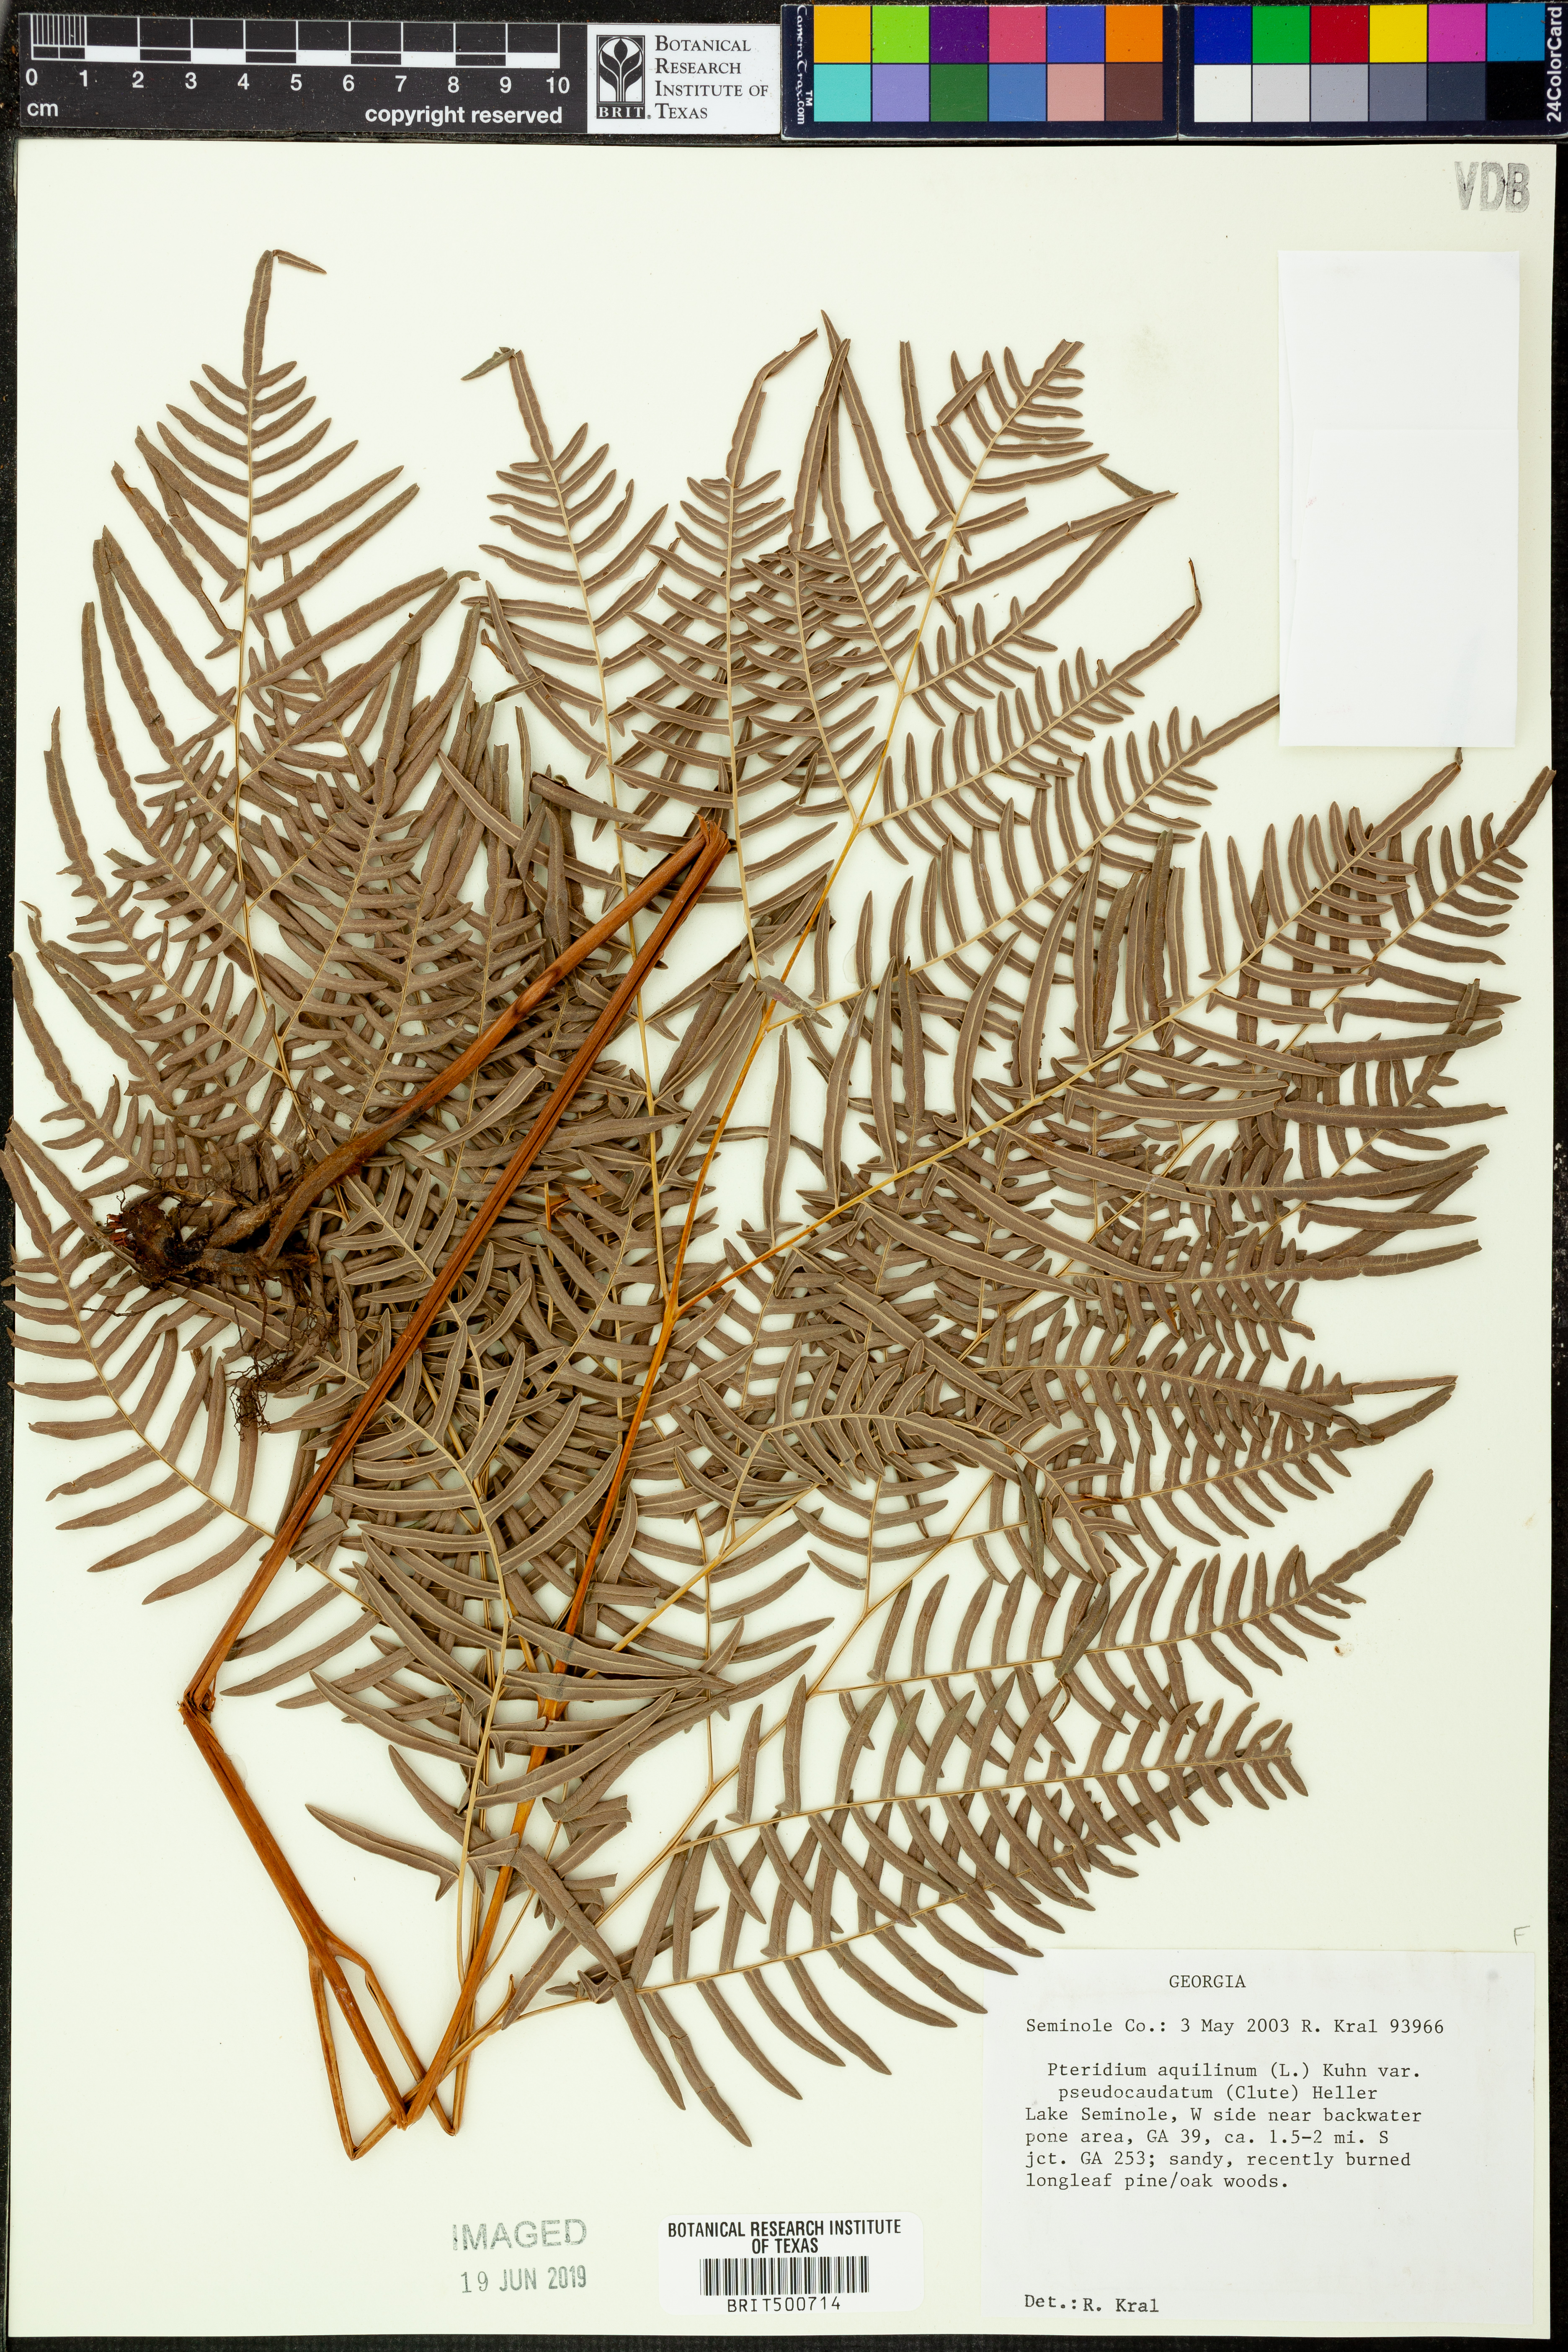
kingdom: Plantae
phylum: Tracheophyta
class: Polypodiopsida
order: Polypodiales
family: Dennstaedtiaceae
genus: Pteridium
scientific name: Pteridium aquilinum
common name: Bracken
